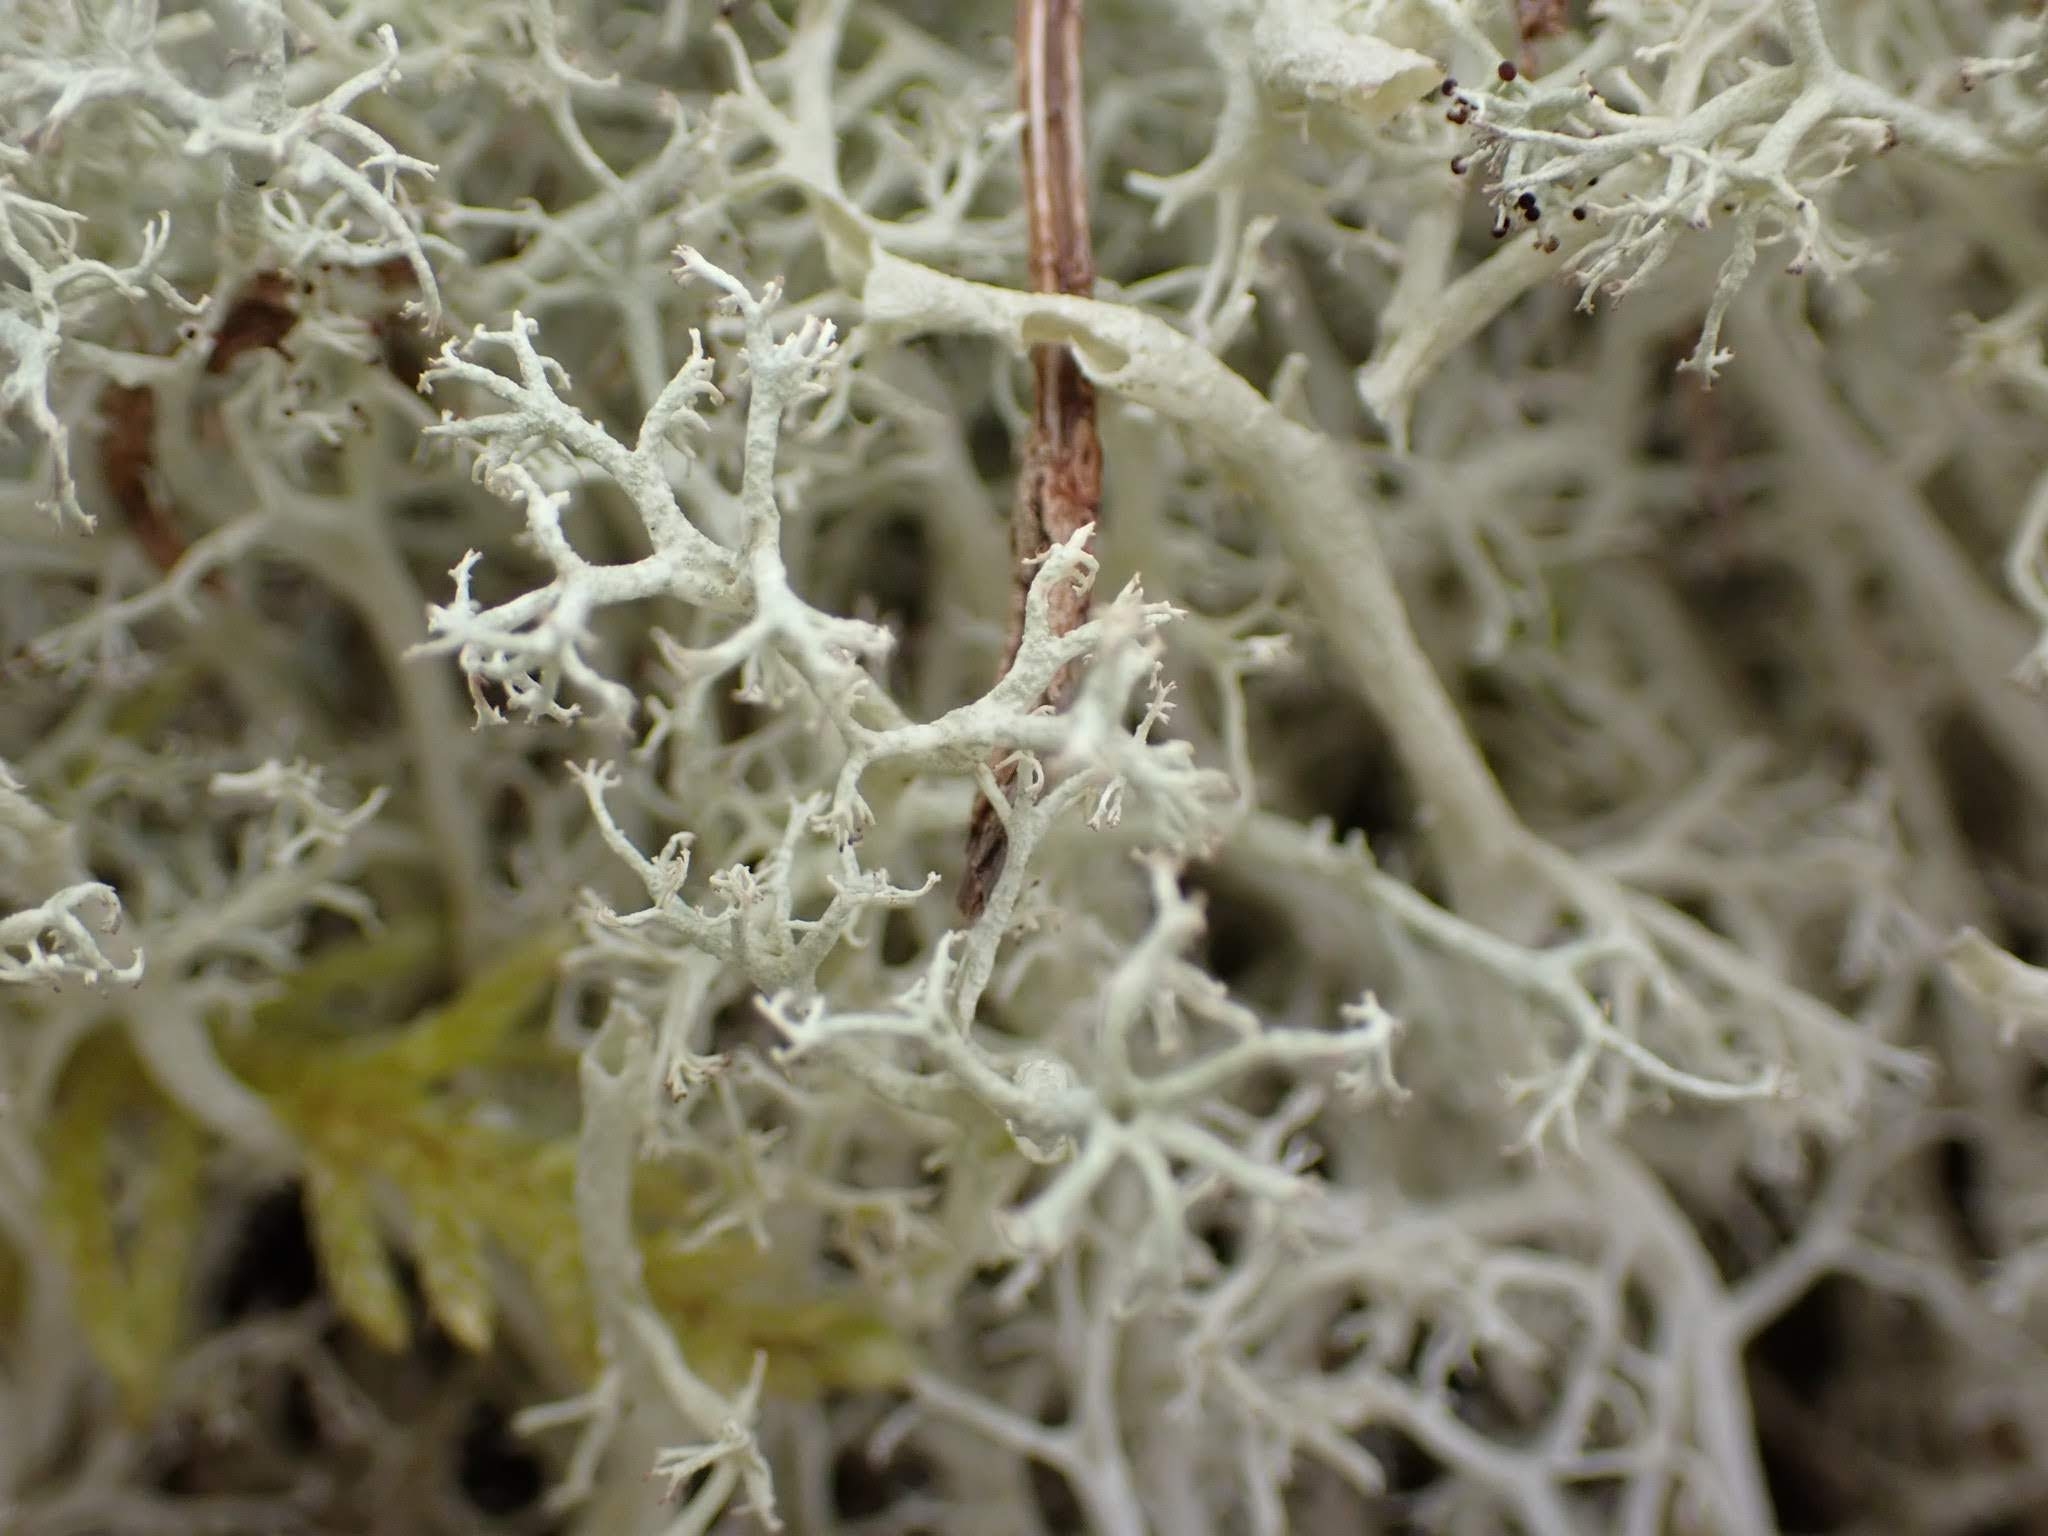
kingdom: Fungi
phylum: Ascomycota
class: Lecanoromycetes
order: Lecanorales
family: Cladoniaceae
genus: Cladonia
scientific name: Cladonia ciliata
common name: spinkel rensdyrlav
